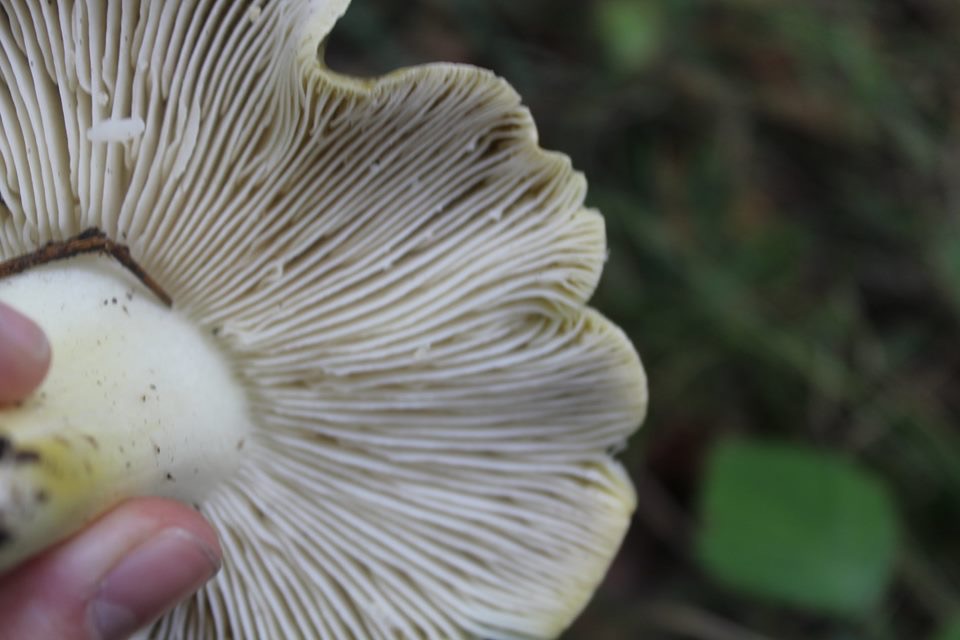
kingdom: Fungi
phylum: Basidiomycota
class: Agaricomycetes
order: Agaricales
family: Tricholomataceae
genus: Tricholoma
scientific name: Tricholoma sejunctum
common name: grøngul ridderhat
